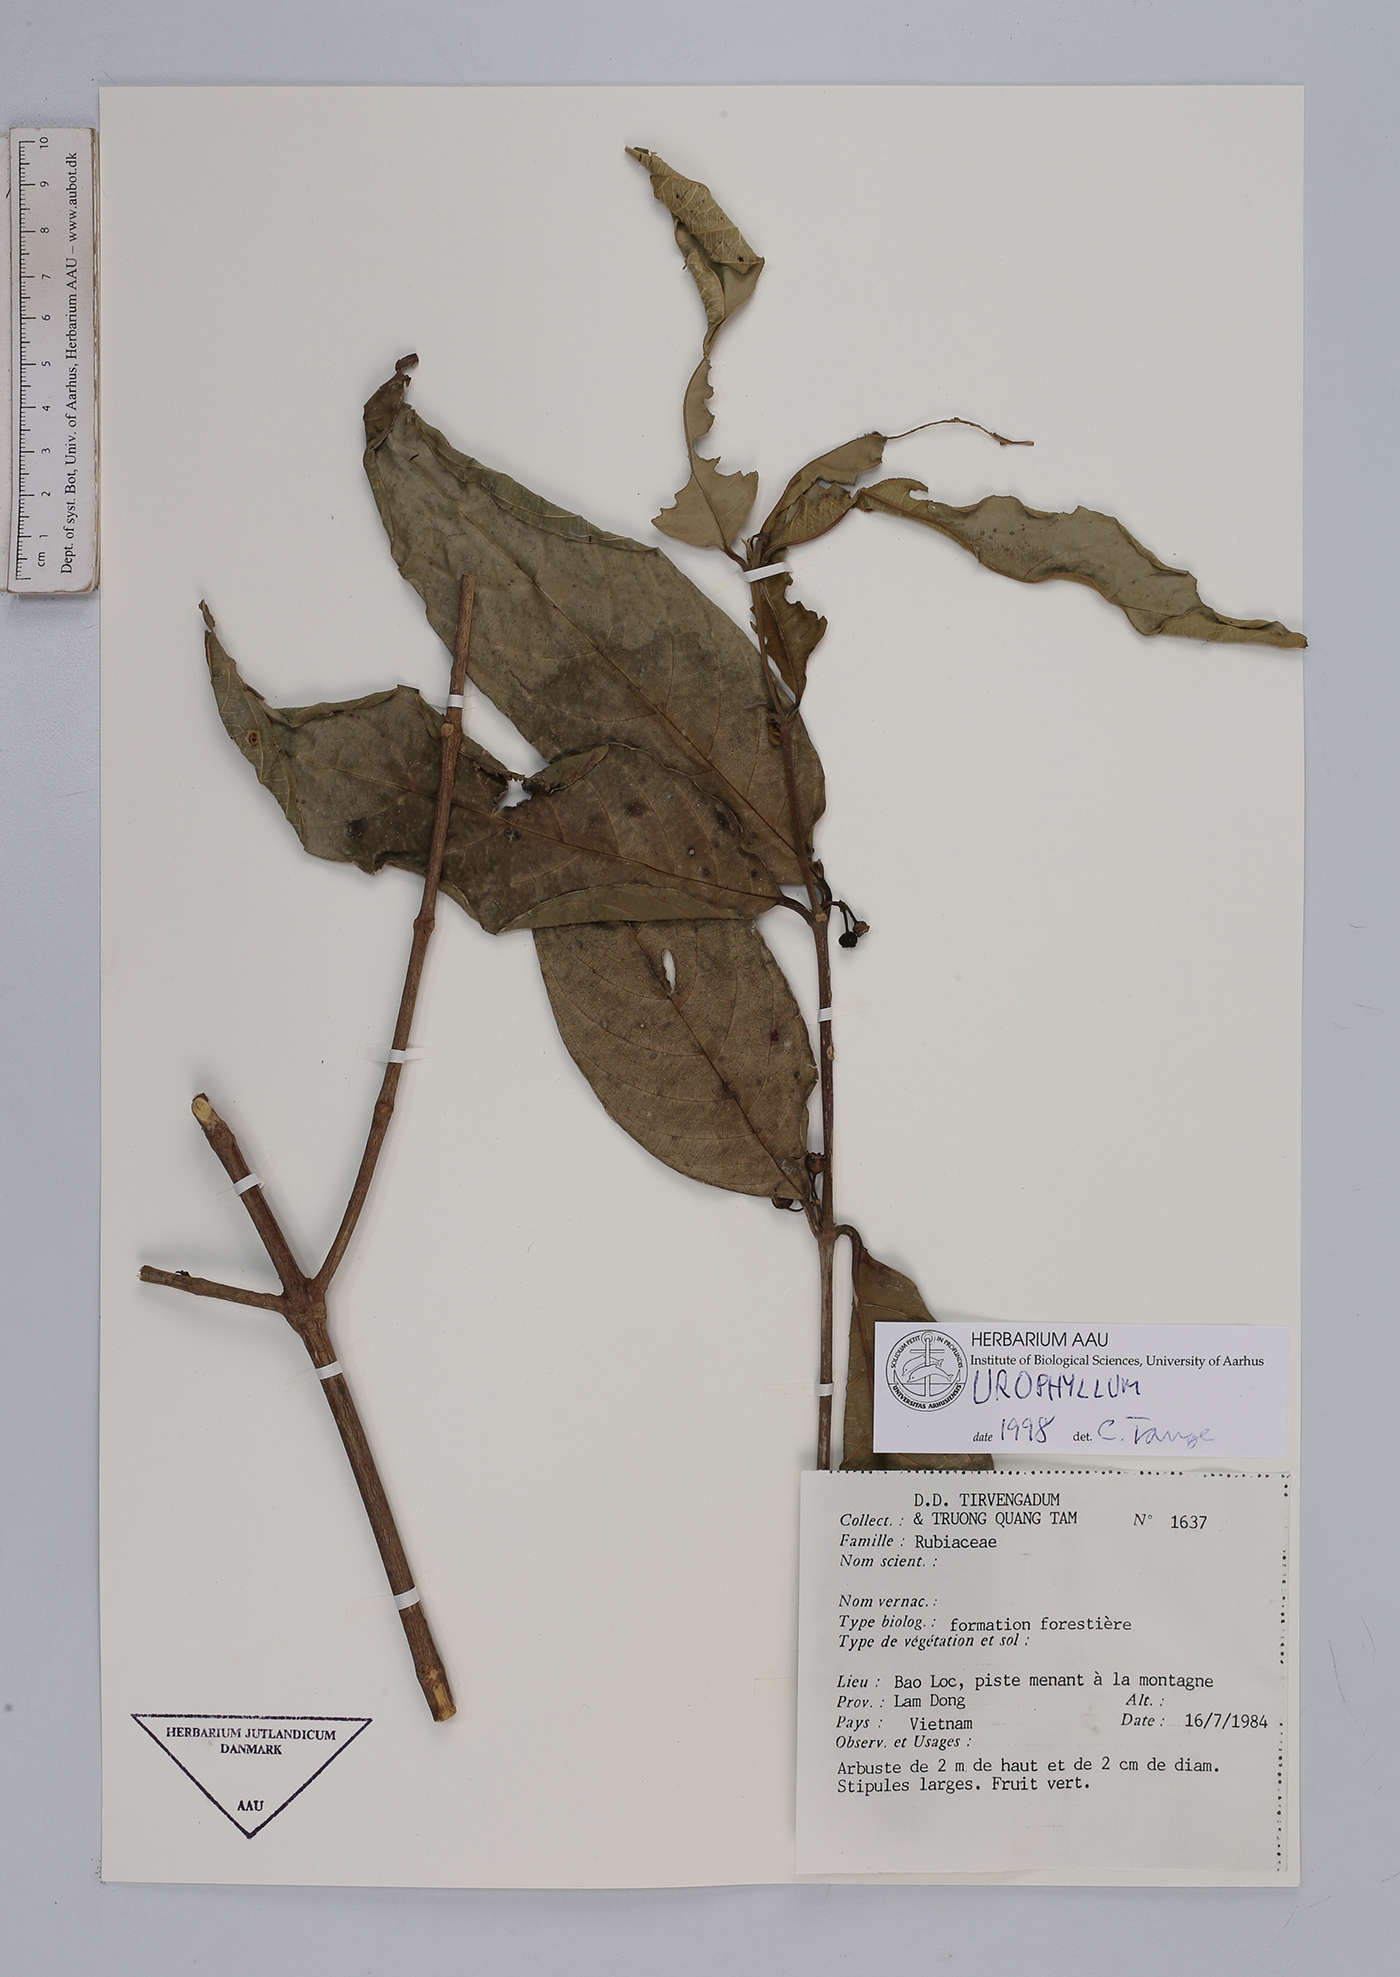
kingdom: Plantae
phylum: Tracheophyta
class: Magnoliopsida
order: Gentianales
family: Rubiaceae
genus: Urophyllum
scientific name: Urophyllum
